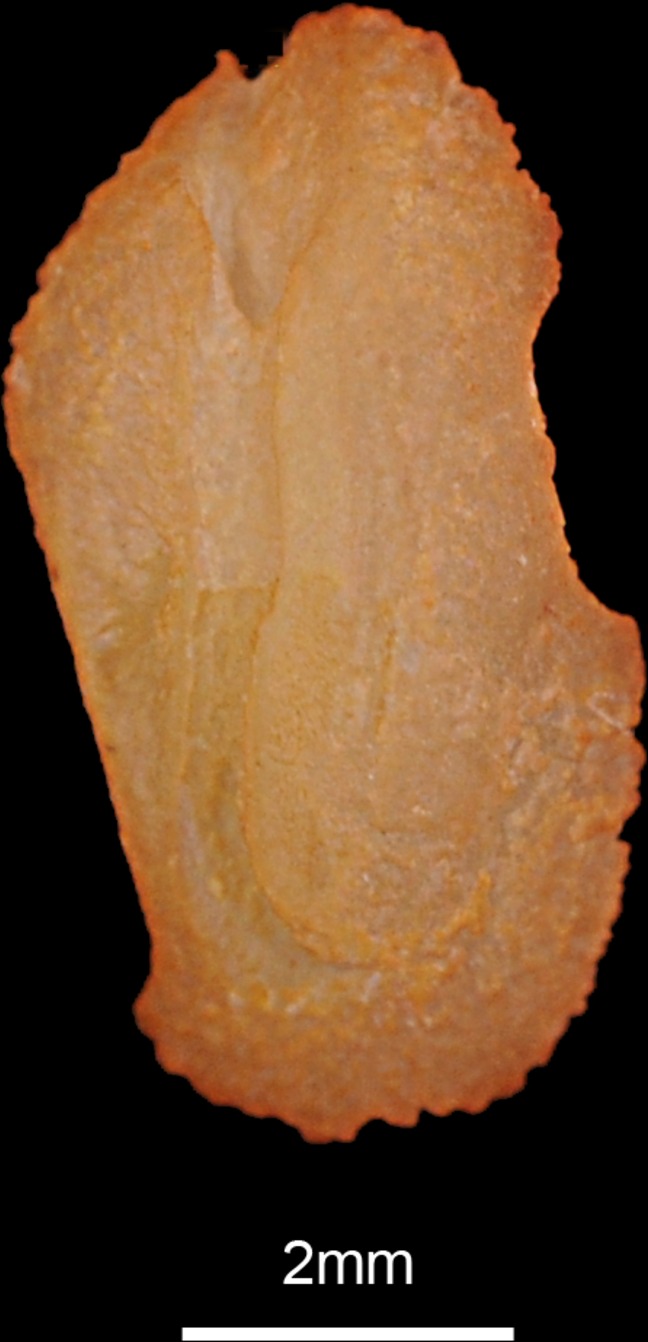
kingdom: Animalia
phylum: Chordata
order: Mugiliformes
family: Mugilidae
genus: Chelon
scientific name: Chelon labrosus
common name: Thick-lipped mullet
